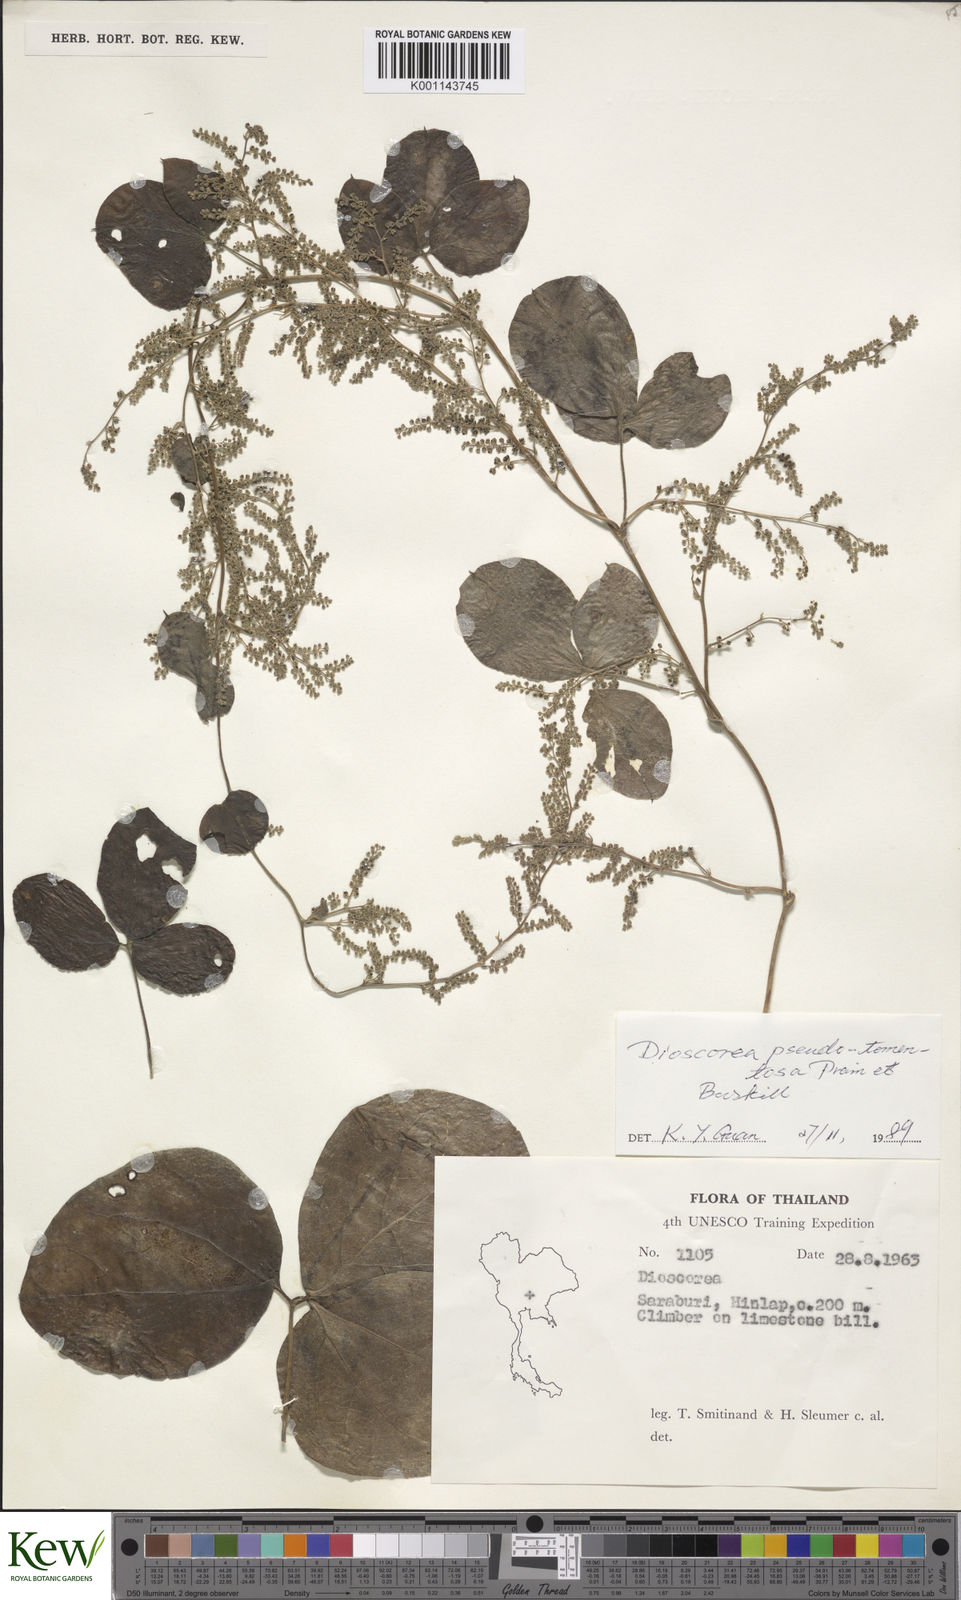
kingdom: Plantae
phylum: Tracheophyta
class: Liliopsida
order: Dioscoreales
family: Dioscoreaceae
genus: Dioscorea
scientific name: Dioscorea pseudotomentosa
